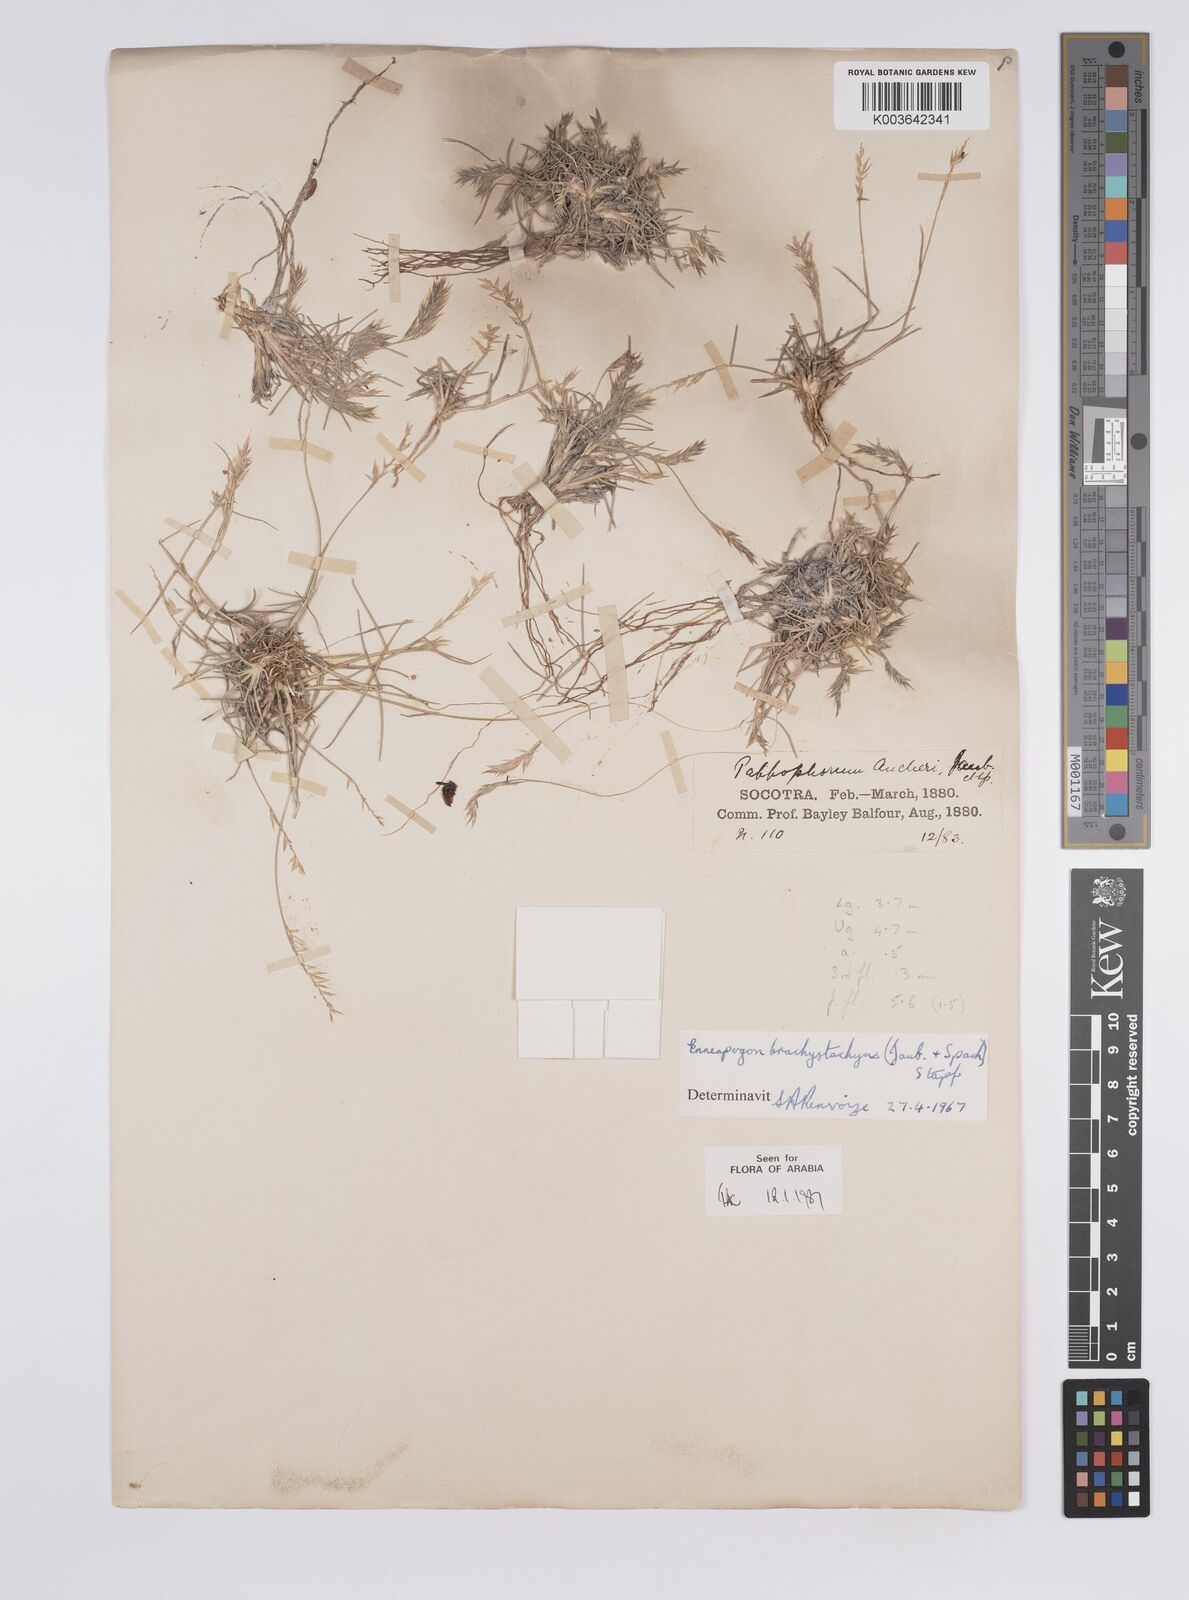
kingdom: Plantae
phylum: Tracheophyta
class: Liliopsida
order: Poales
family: Poaceae
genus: Enneapogon
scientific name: Enneapogon desvauxii
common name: Feather pappus grass
